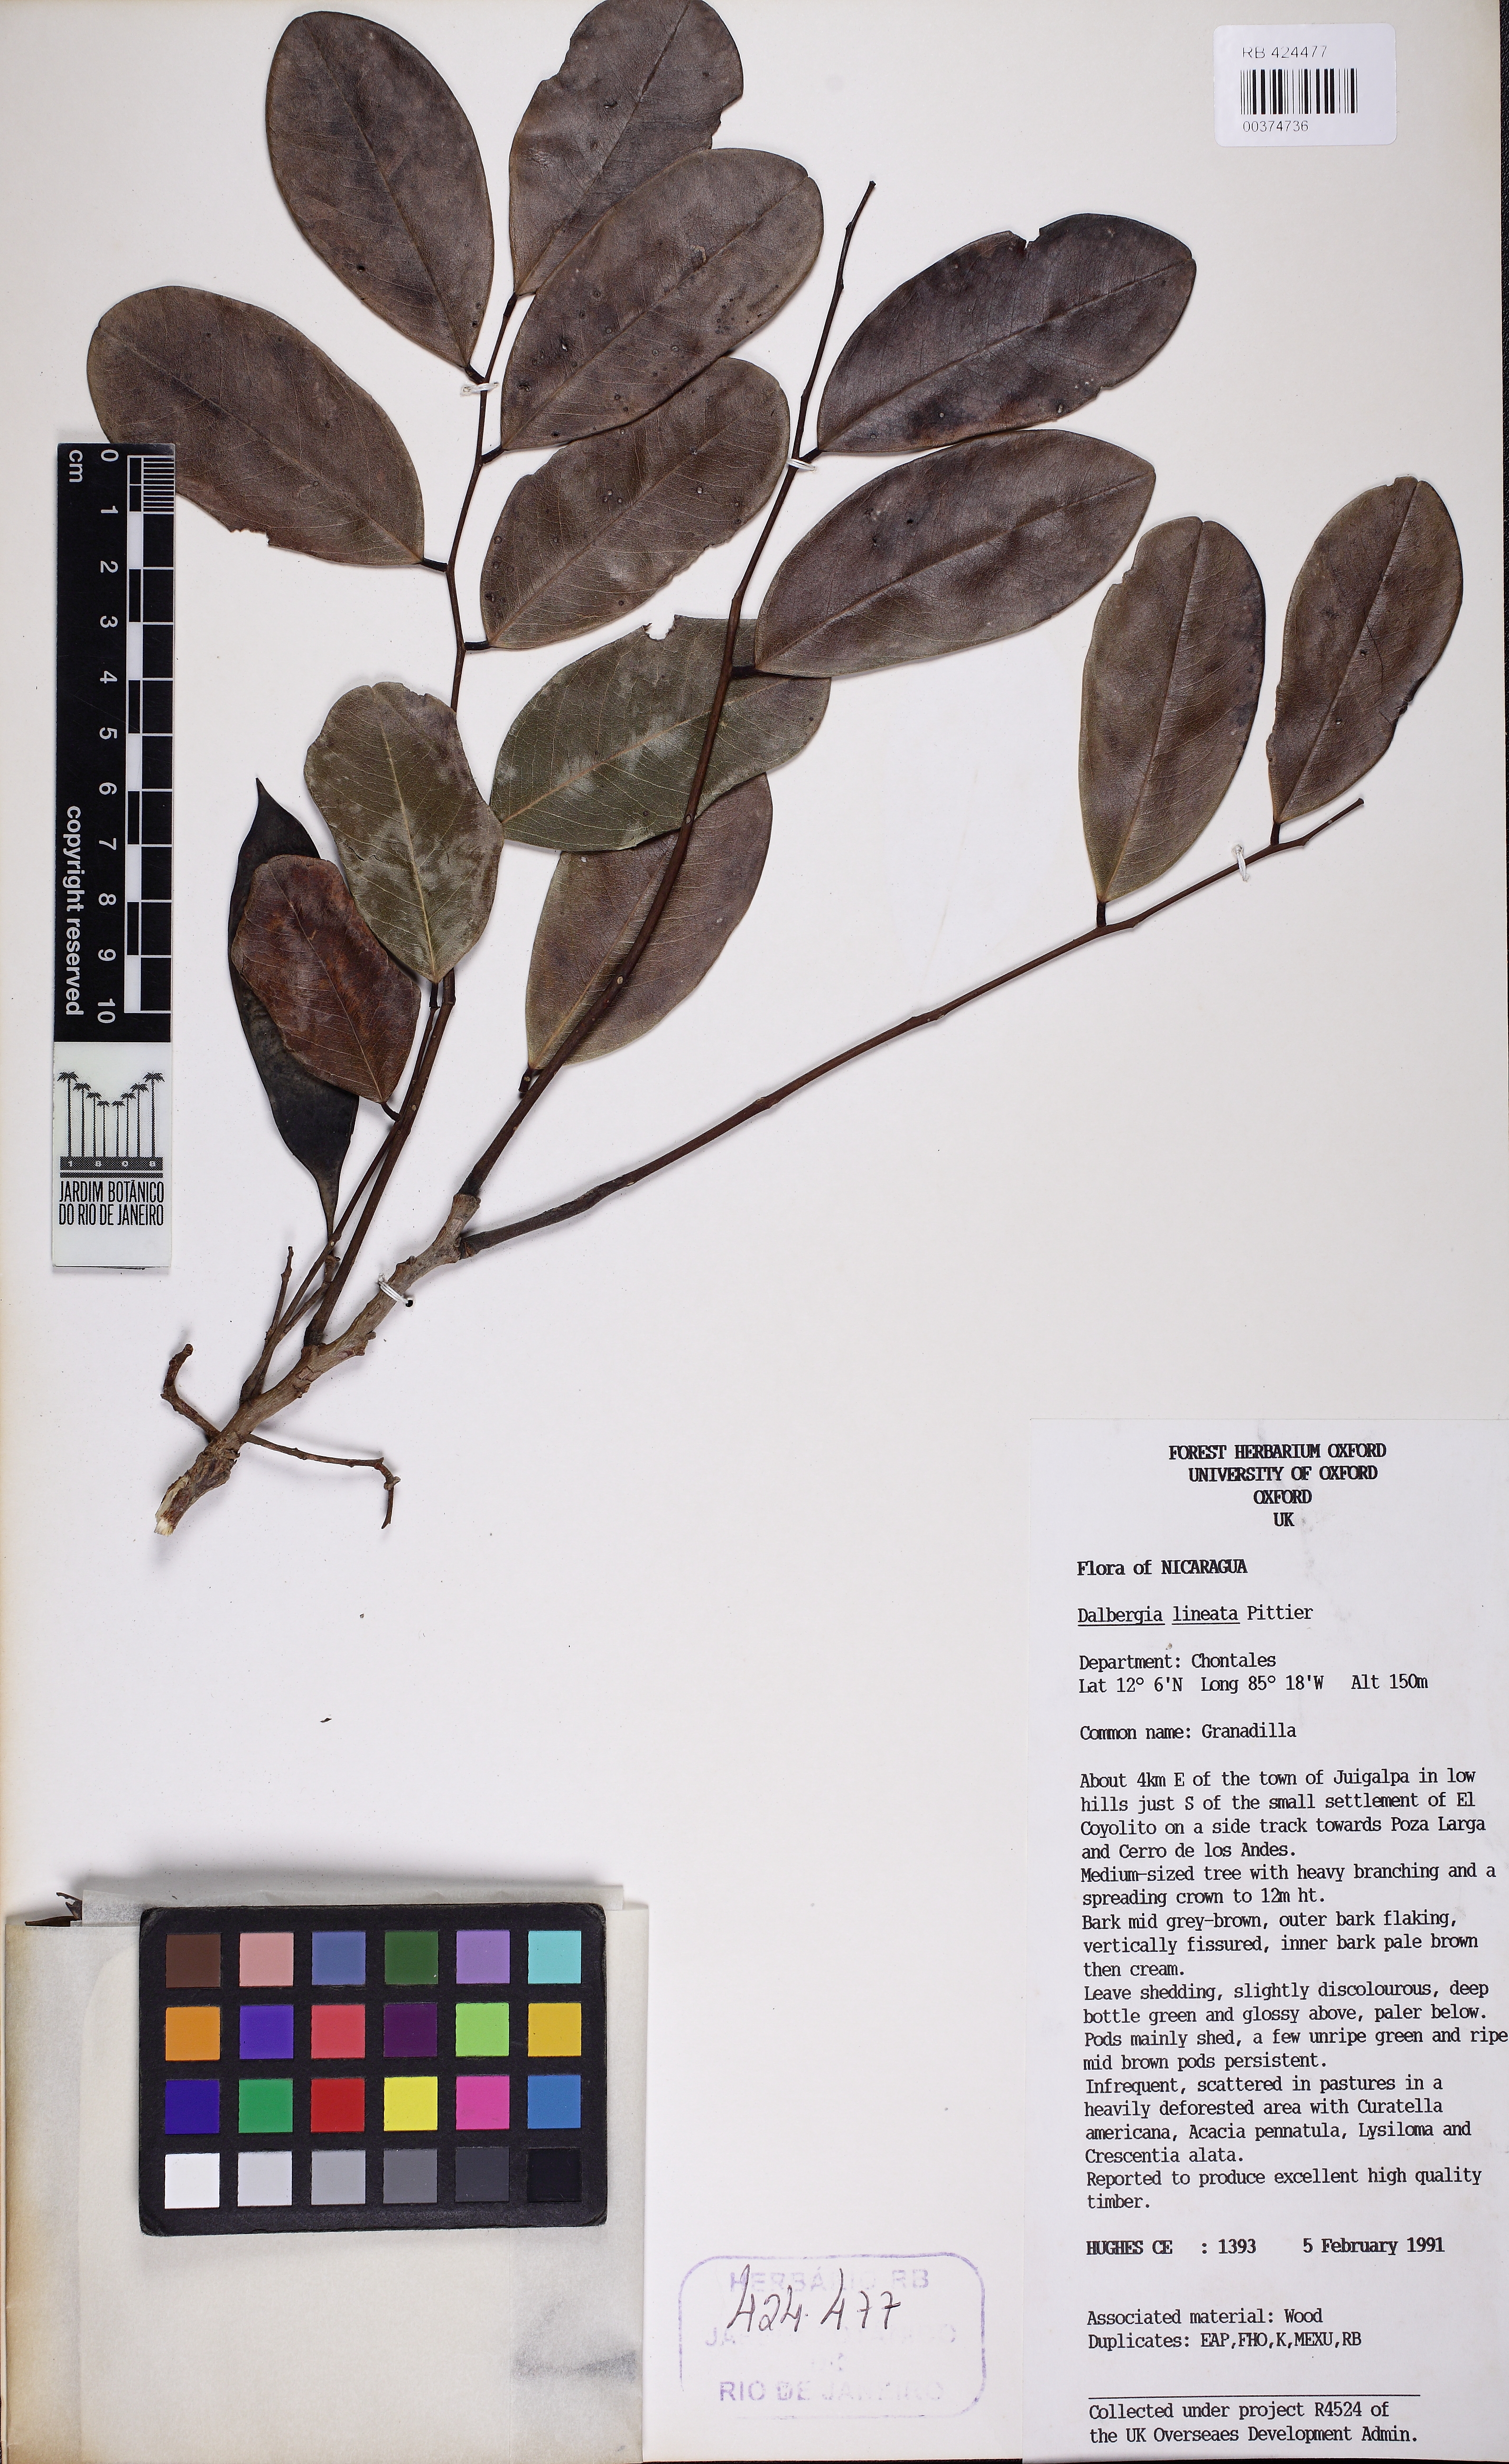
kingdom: Plantae
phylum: Tracheophyta
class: Magnoliopsida
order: Fabales
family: Fabaceae
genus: Dalbergia
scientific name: Dalbergia retusa
